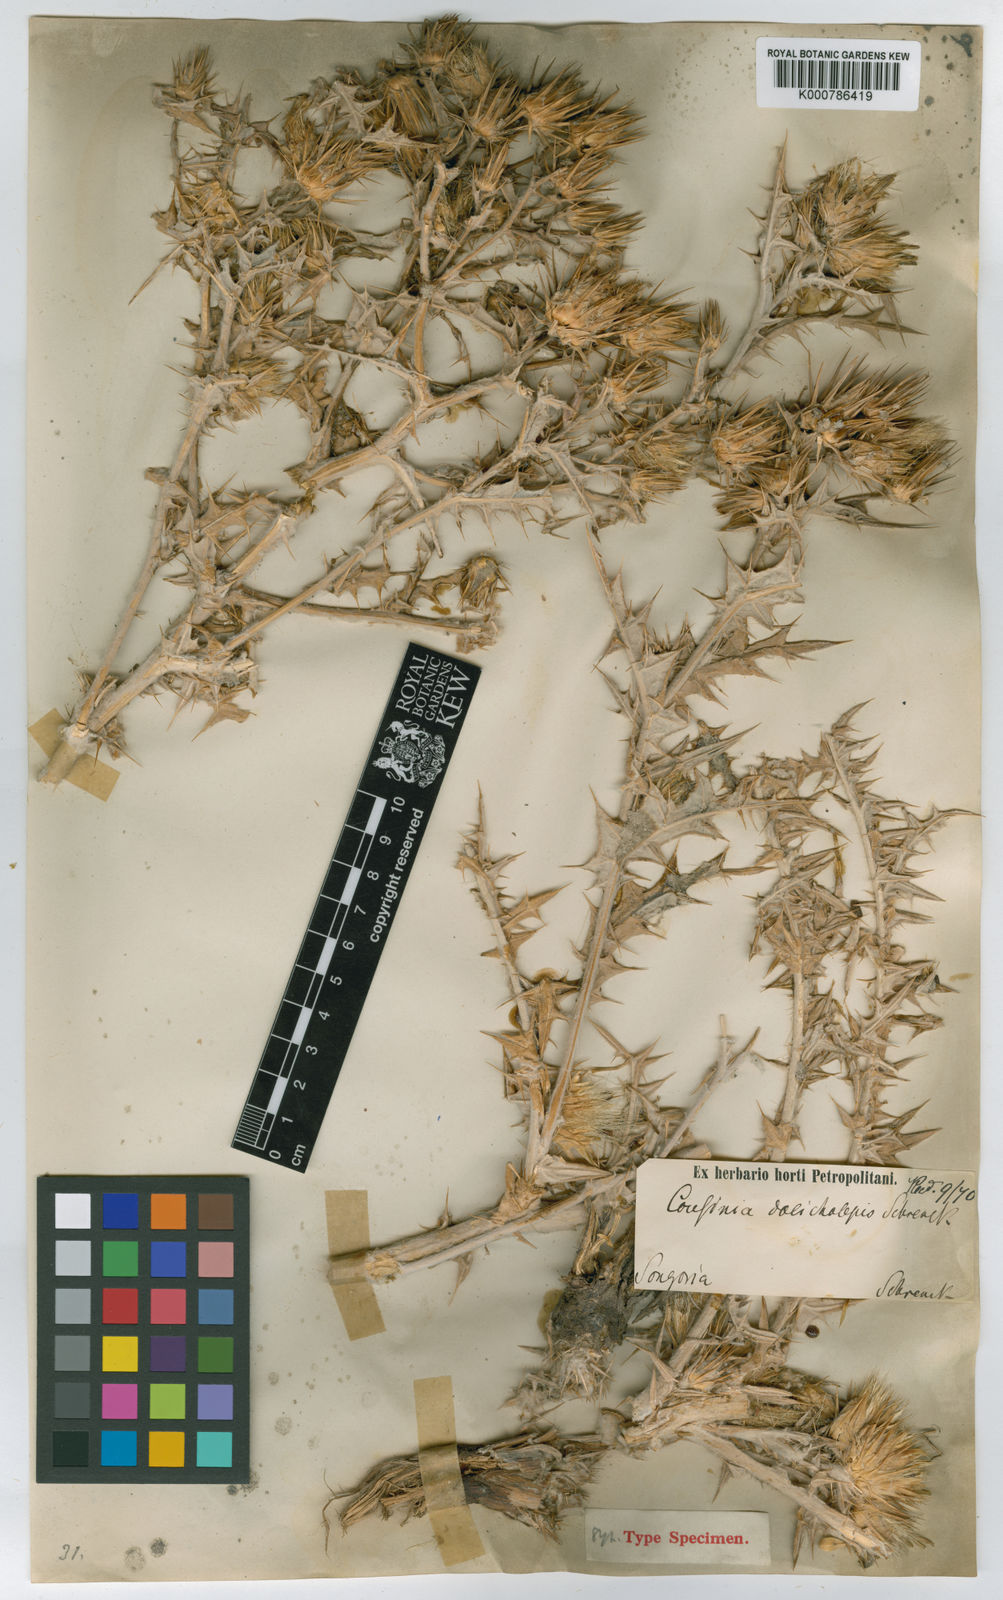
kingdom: Plantae
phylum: Tracheophyta
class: Magnoliopsida
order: Asterales
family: Asteraceae
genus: Cousinia
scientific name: Cousinia dolicholepis
